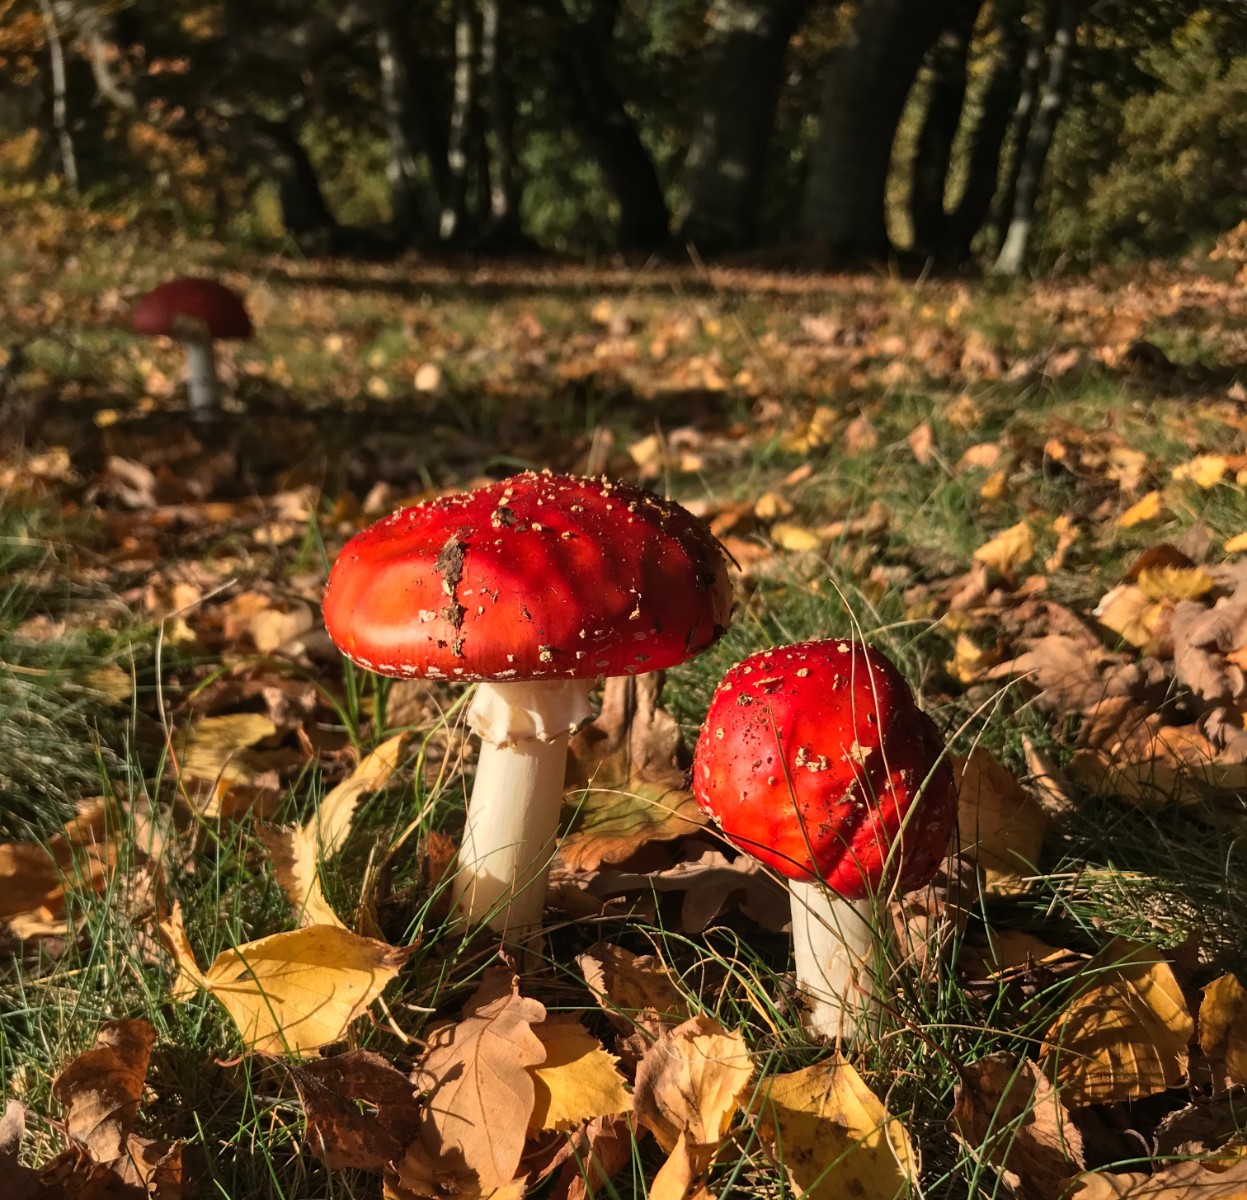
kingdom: Fungi
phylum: Basidiomycota
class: Agaricomycetes
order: Agaricales
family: Amanitaceae
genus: Amanita
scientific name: Amanita muscaria
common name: rød fluesvamp
